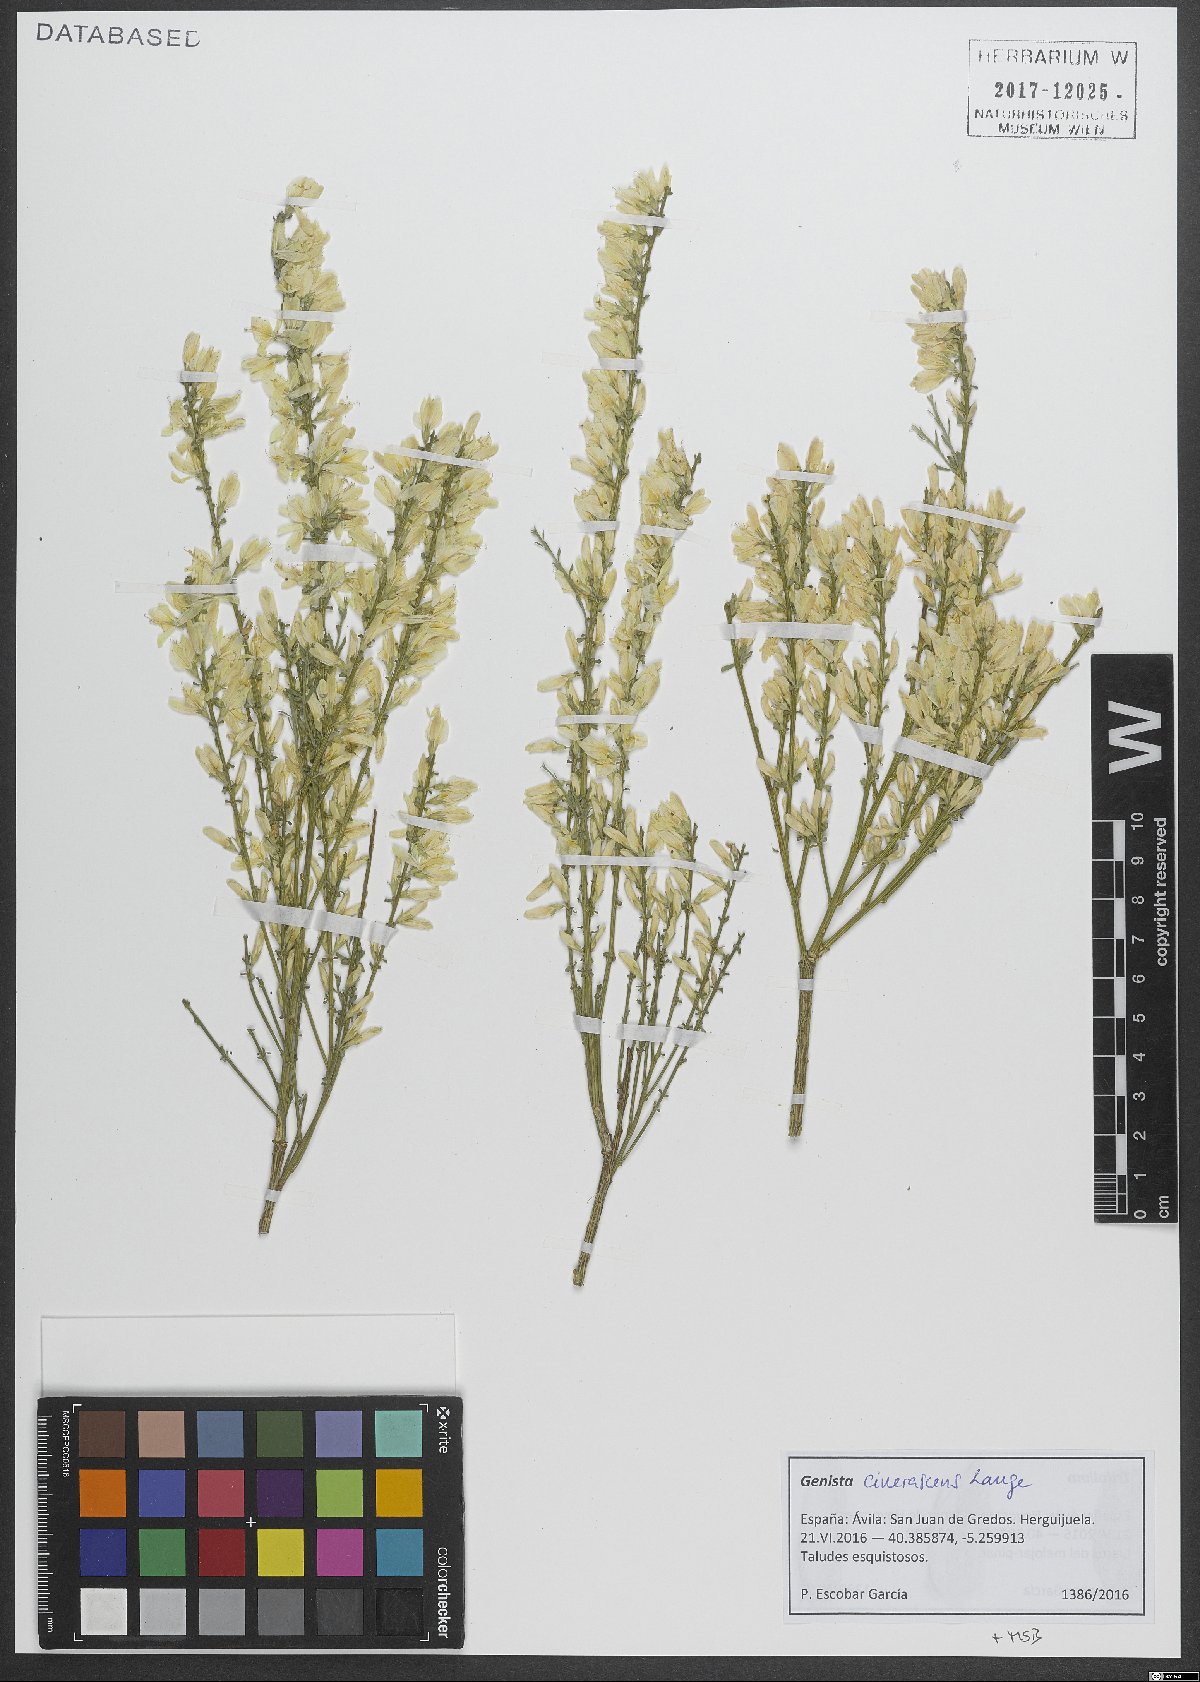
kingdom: Plantae
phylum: Tracheophyta
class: Magnoliopsida
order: Fabales
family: Fabaceae
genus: Genista
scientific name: Genista cinerascens
